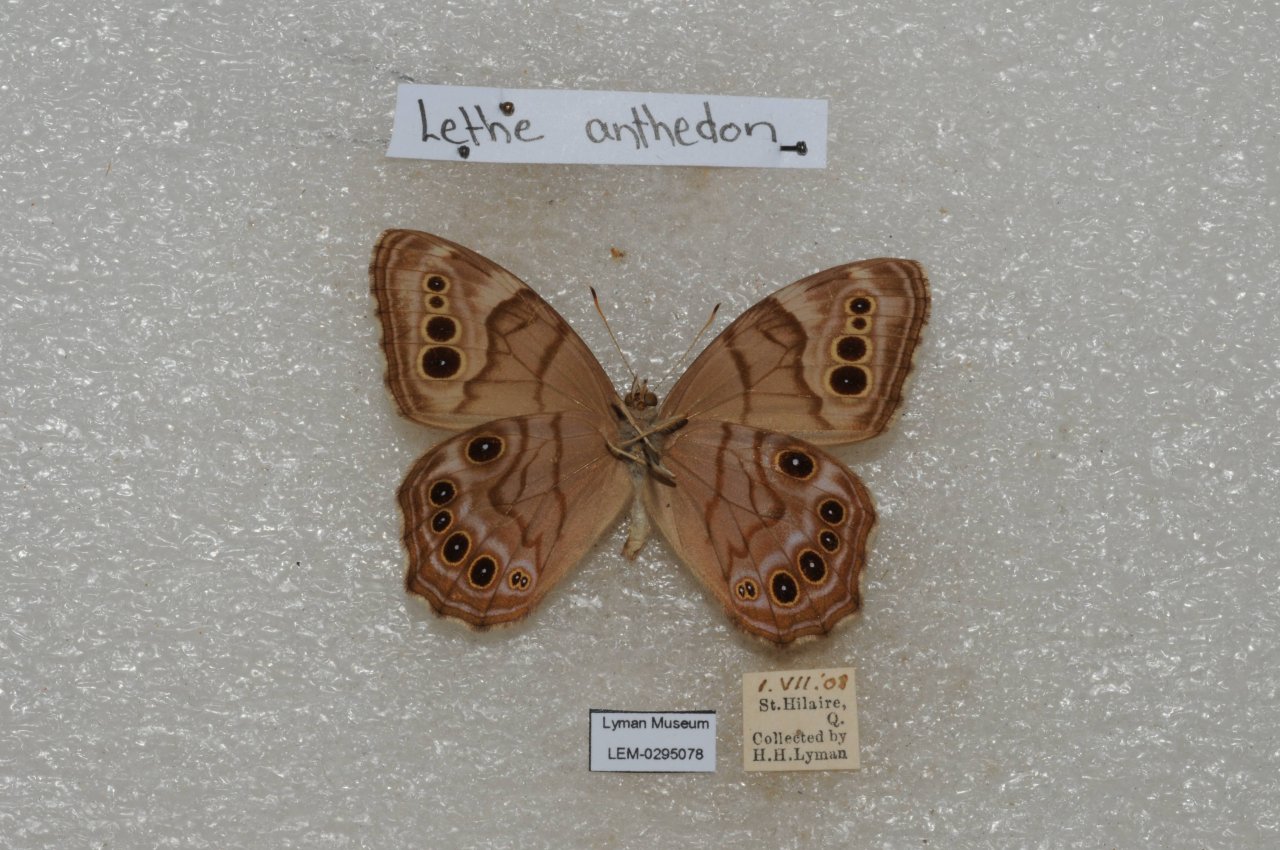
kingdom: Animalia
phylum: Arthropoda
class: Insecta
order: Lepidoptera
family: Nymphalidae
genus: Lethe
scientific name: Lethe anthedon
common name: Northern Pearly-Eye
